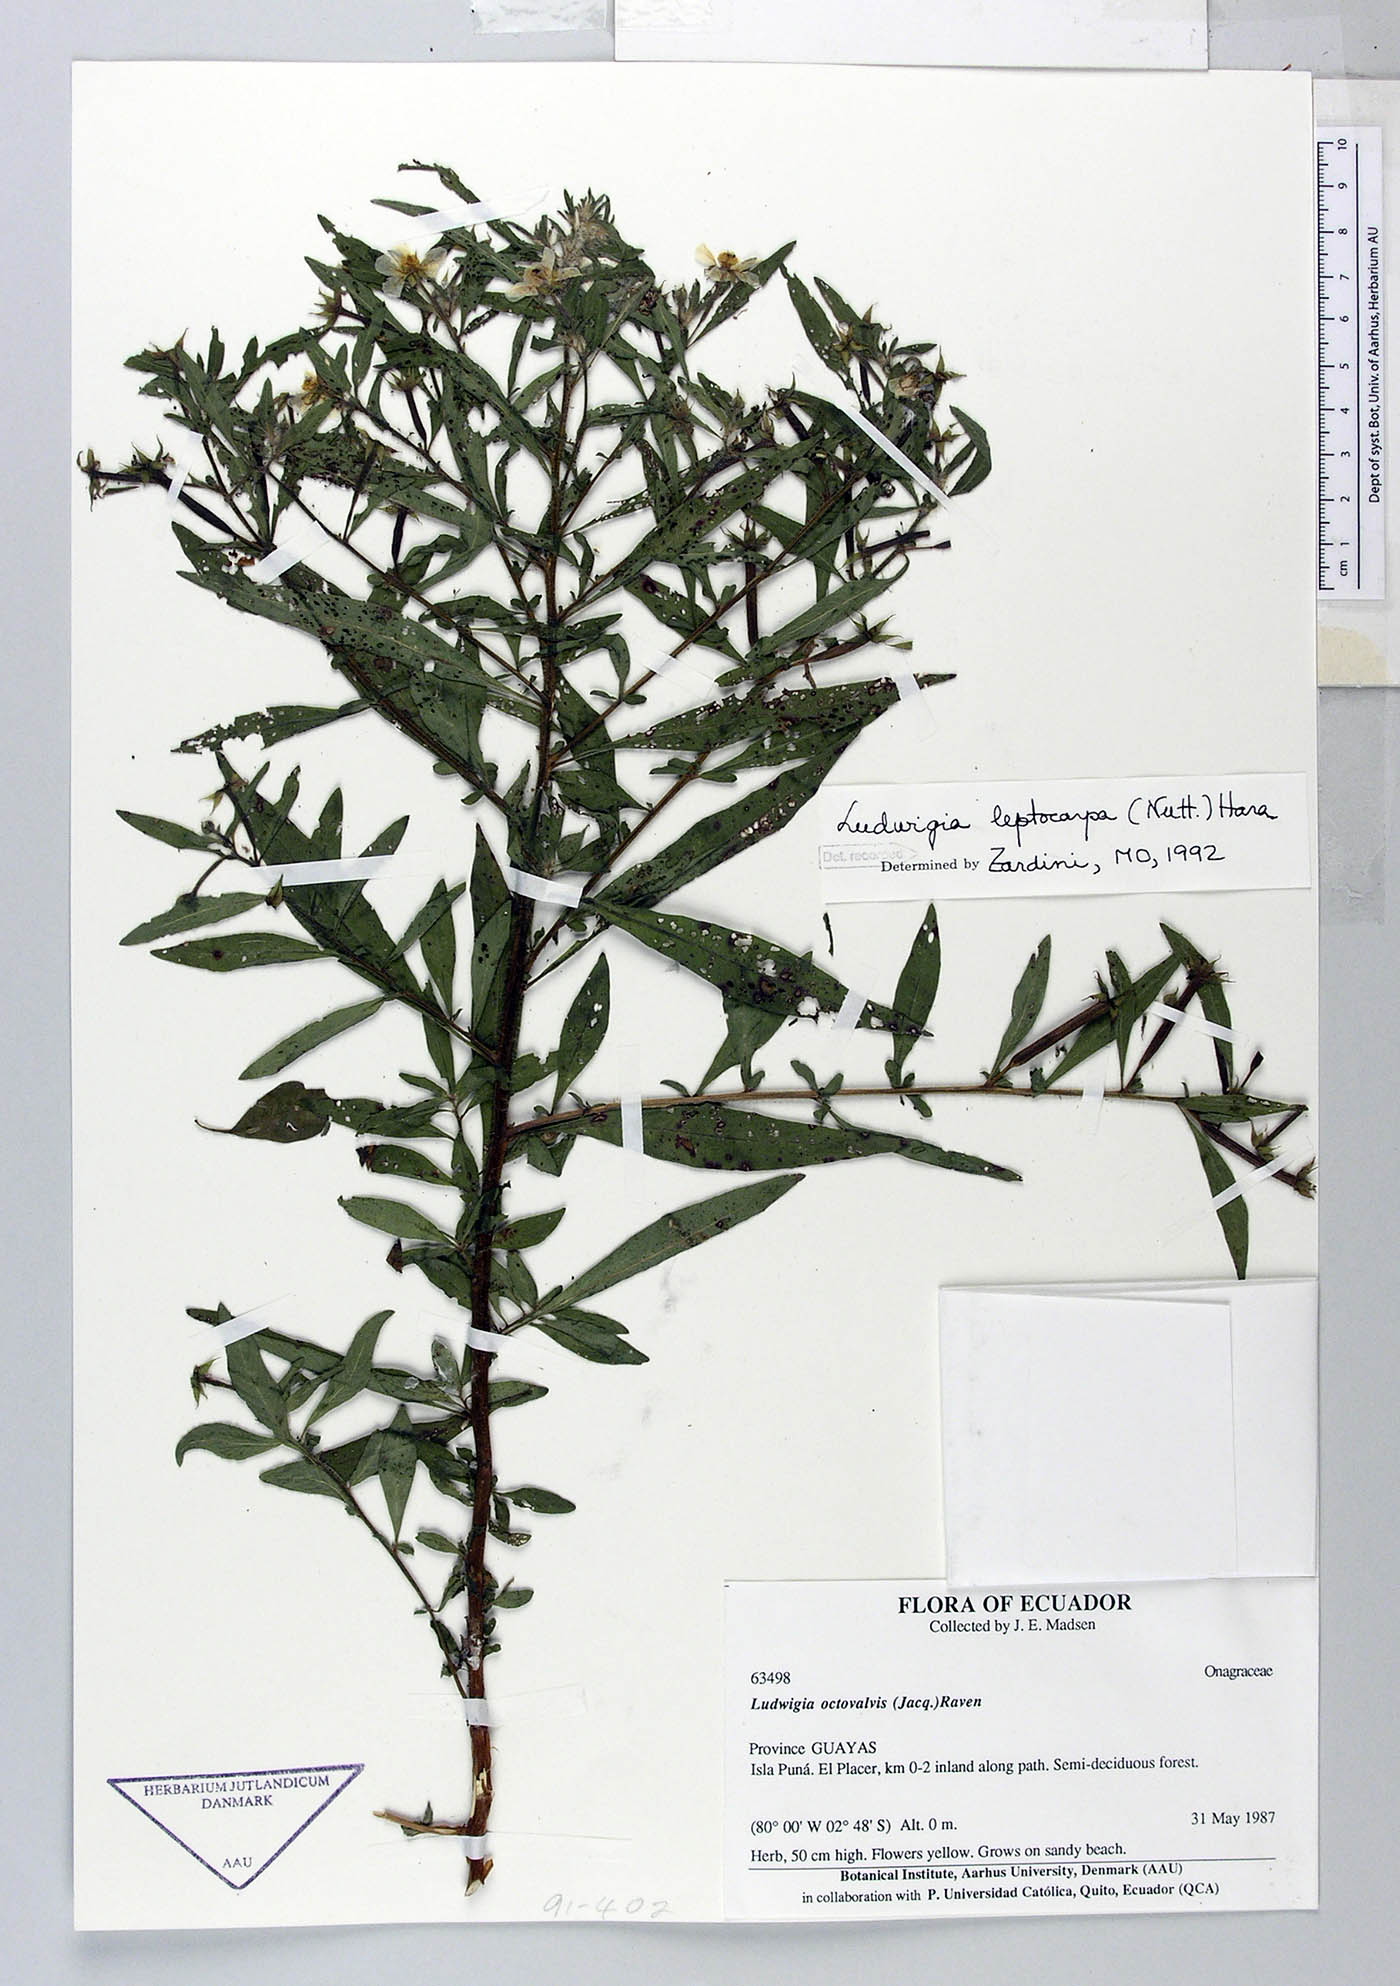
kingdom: Plantae
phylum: Tracheophyta
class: Magnoliopsida
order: Myrtales
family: Onagraceae
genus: Ludwigia
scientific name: Ludwigia leptocarpa
